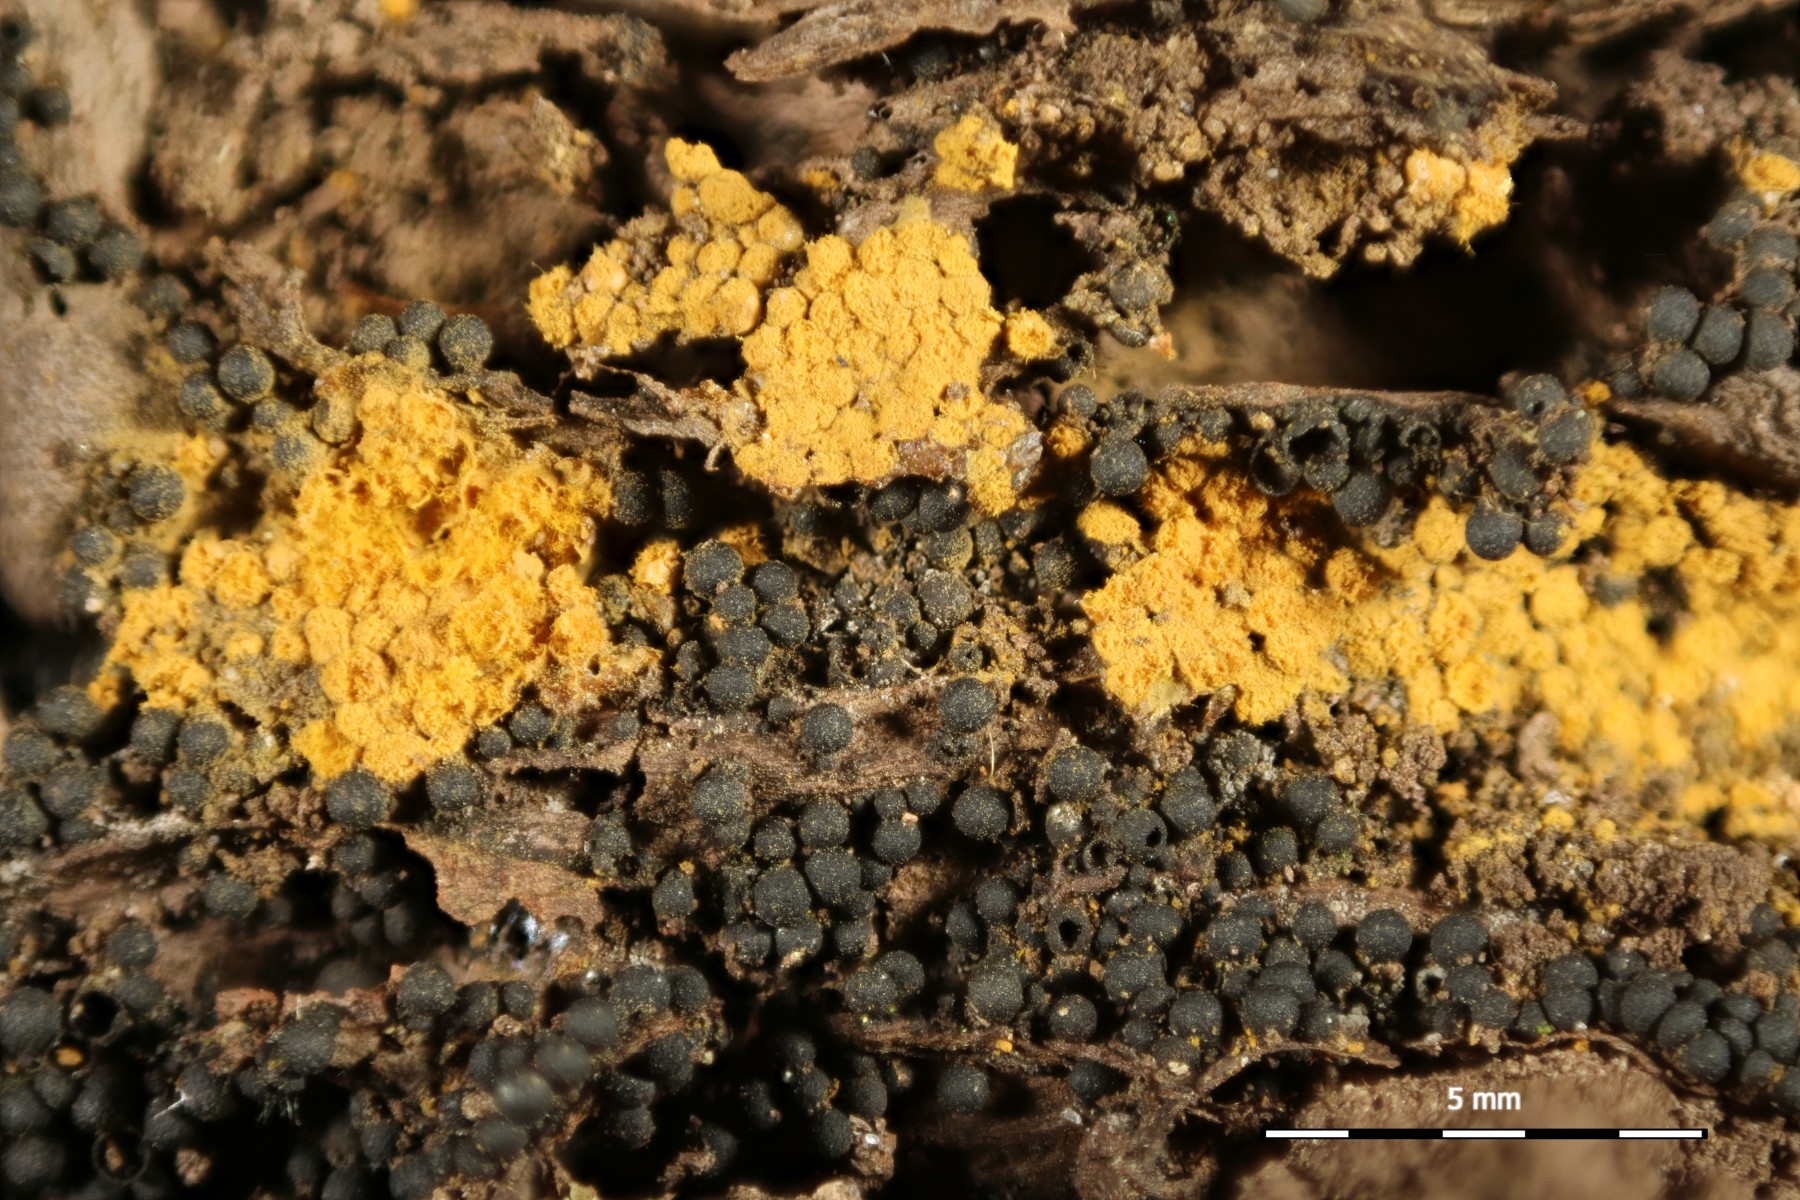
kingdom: Protozoa
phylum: Mycetozoa
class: Myxomycetes
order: Trichiales
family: Trichiaceae
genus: Oligonema
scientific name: Oligonema affine
